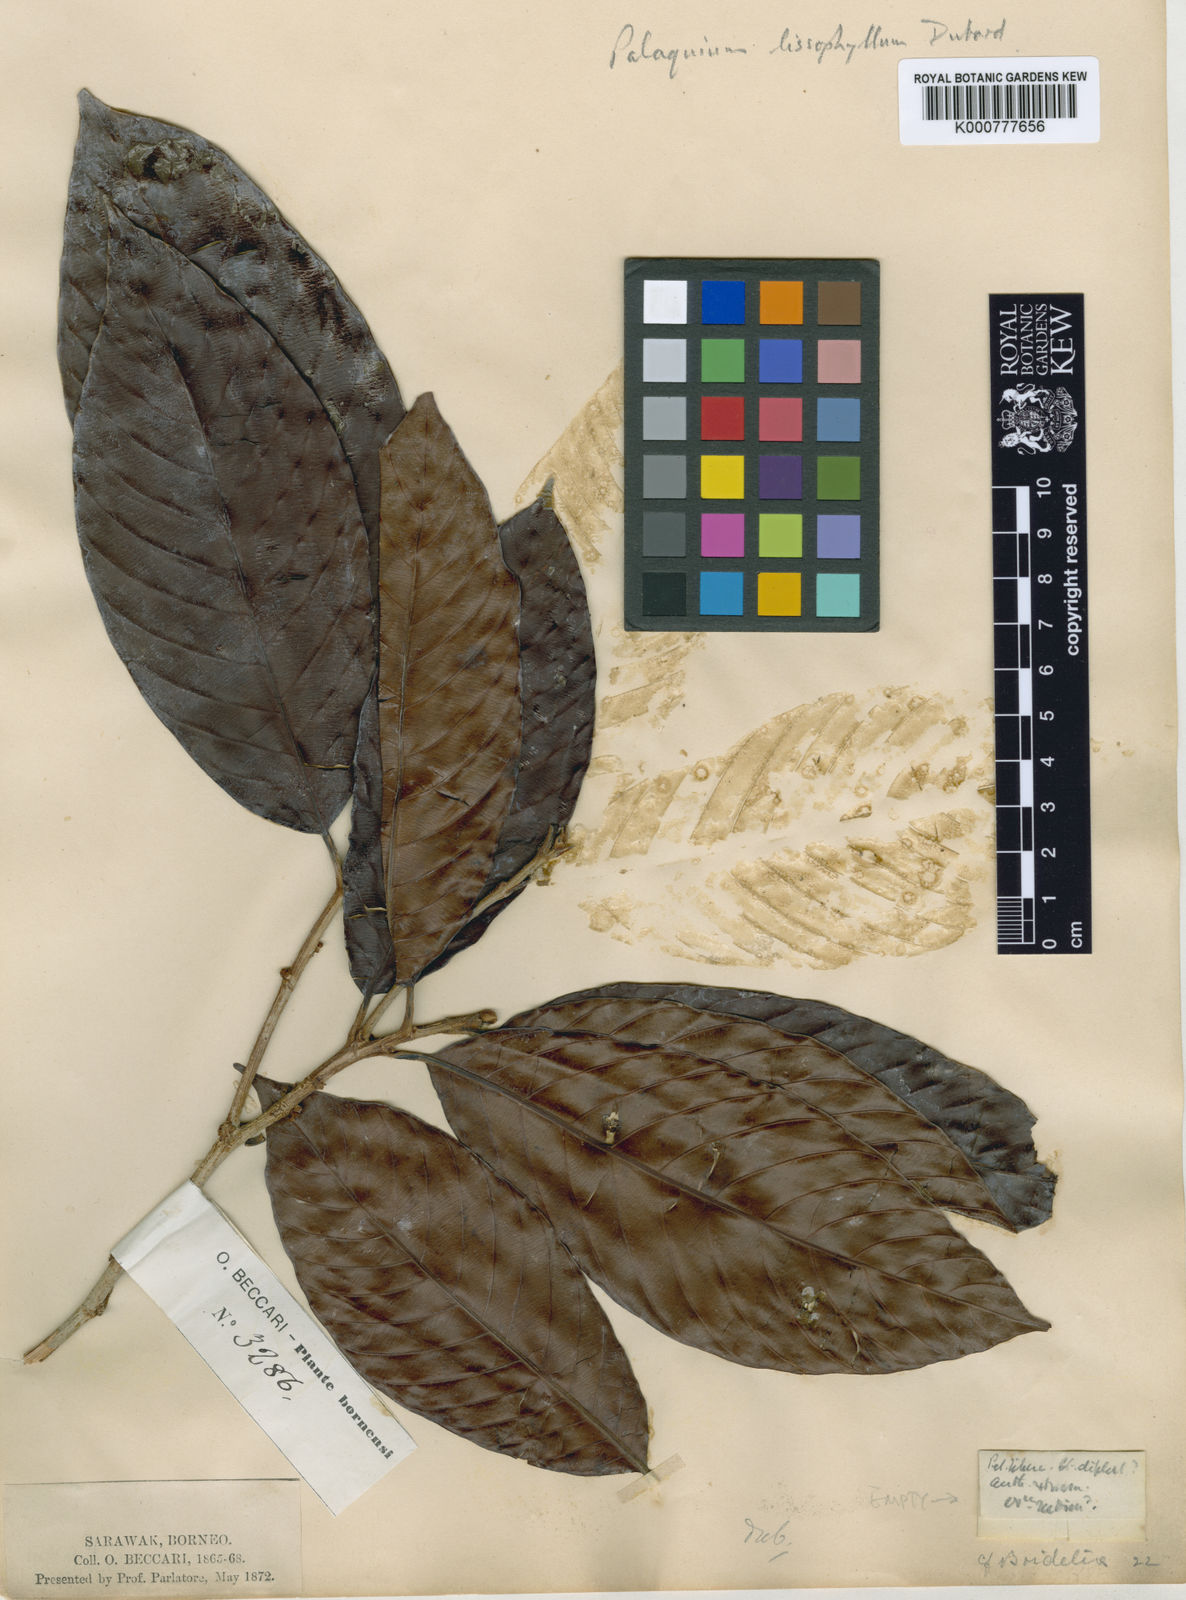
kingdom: Plantae
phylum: Tracheophyta
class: Magnoliopsida
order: Ericales
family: Sapotaceae
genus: Palaquium
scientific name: Palaquium lisophyllum
